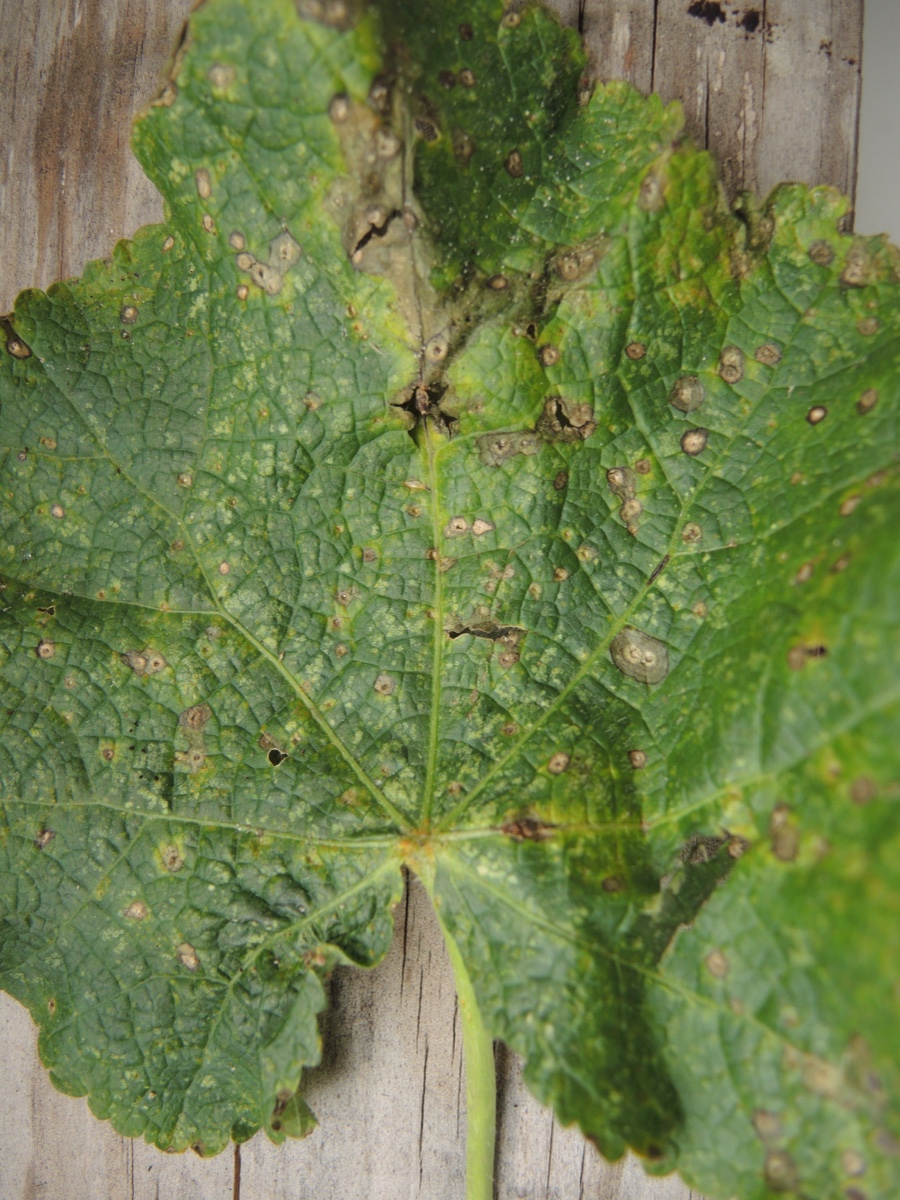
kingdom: Fungi
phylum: Basidiomycota
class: Pucciniomycetes
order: Pucciniales
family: Pucciniaceae
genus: Puccinia
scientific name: Puccinia malvacearum
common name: stokrose-tvecellerust
